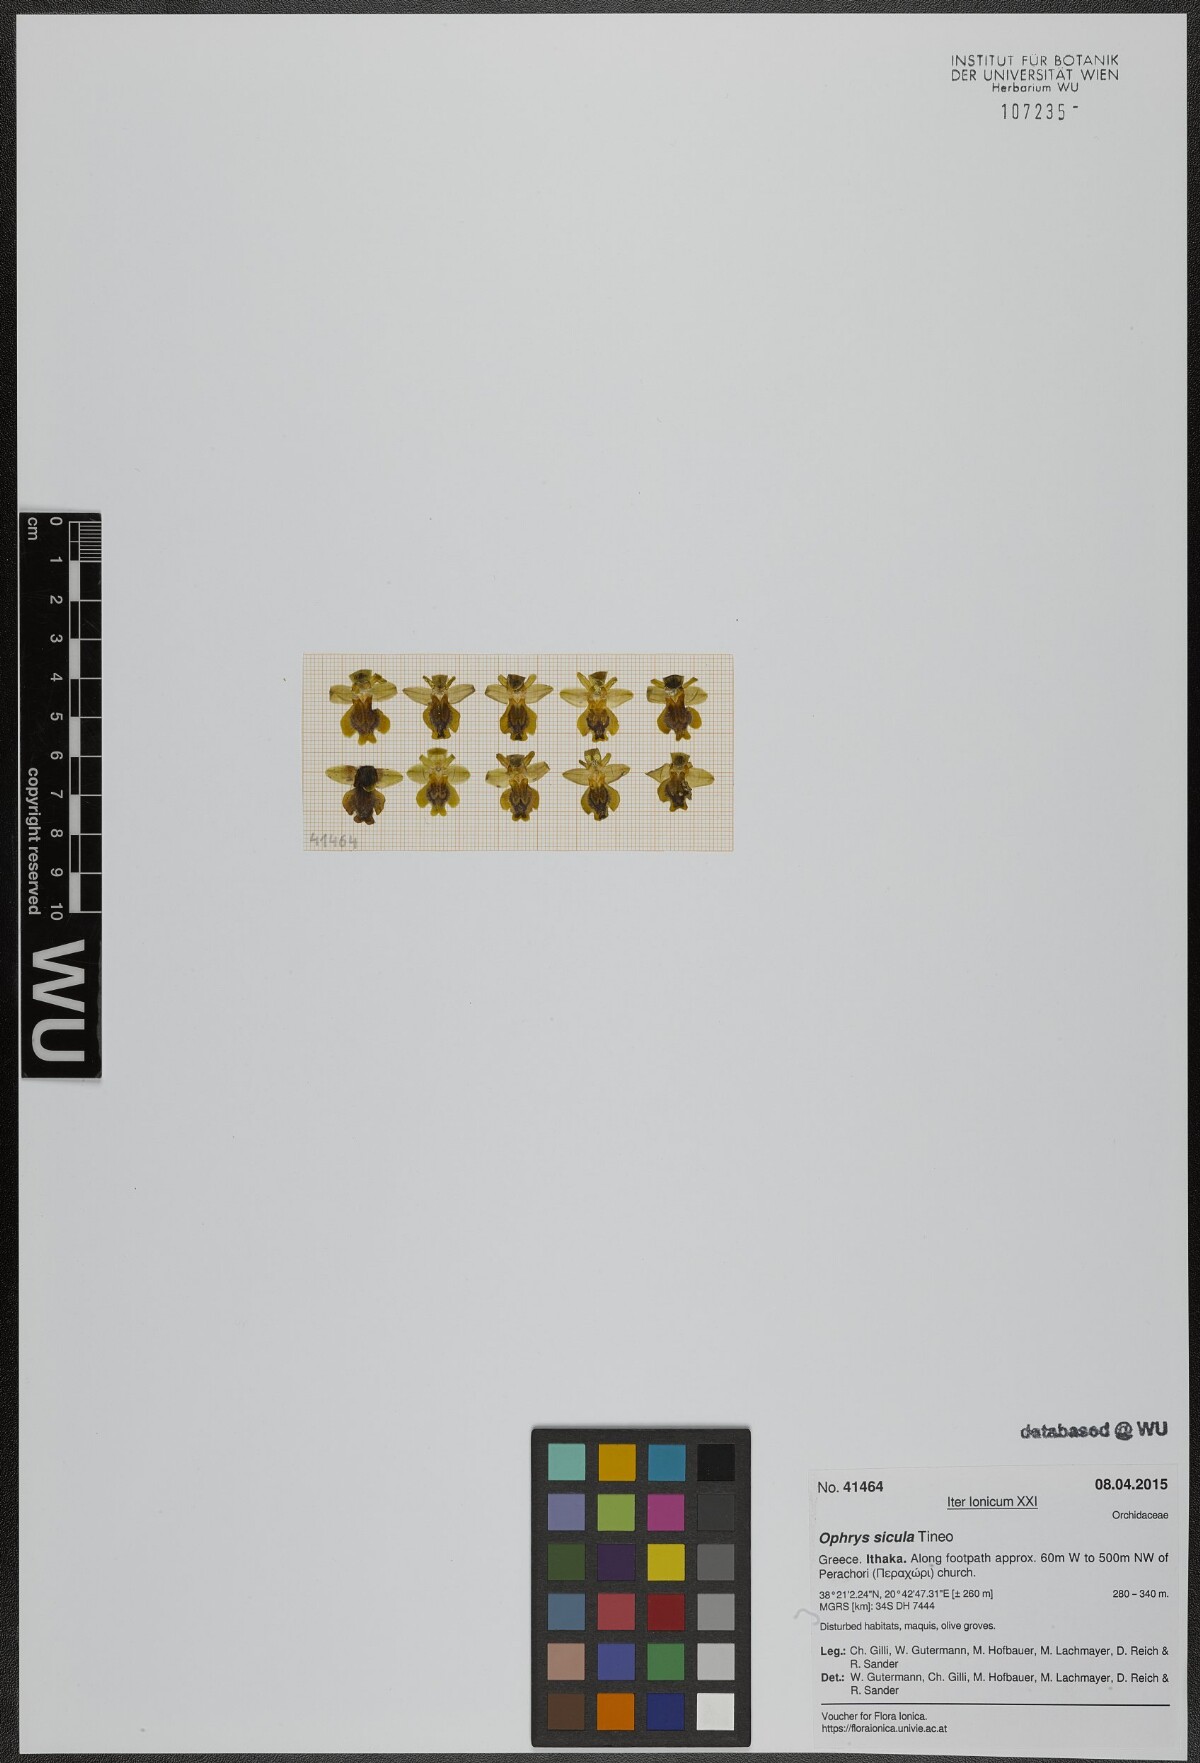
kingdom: Plantae
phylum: Tracheophyta
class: Liliopsida
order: Asparagales
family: Orchidaceae
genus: Ophrys
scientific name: Ophrys lutea
